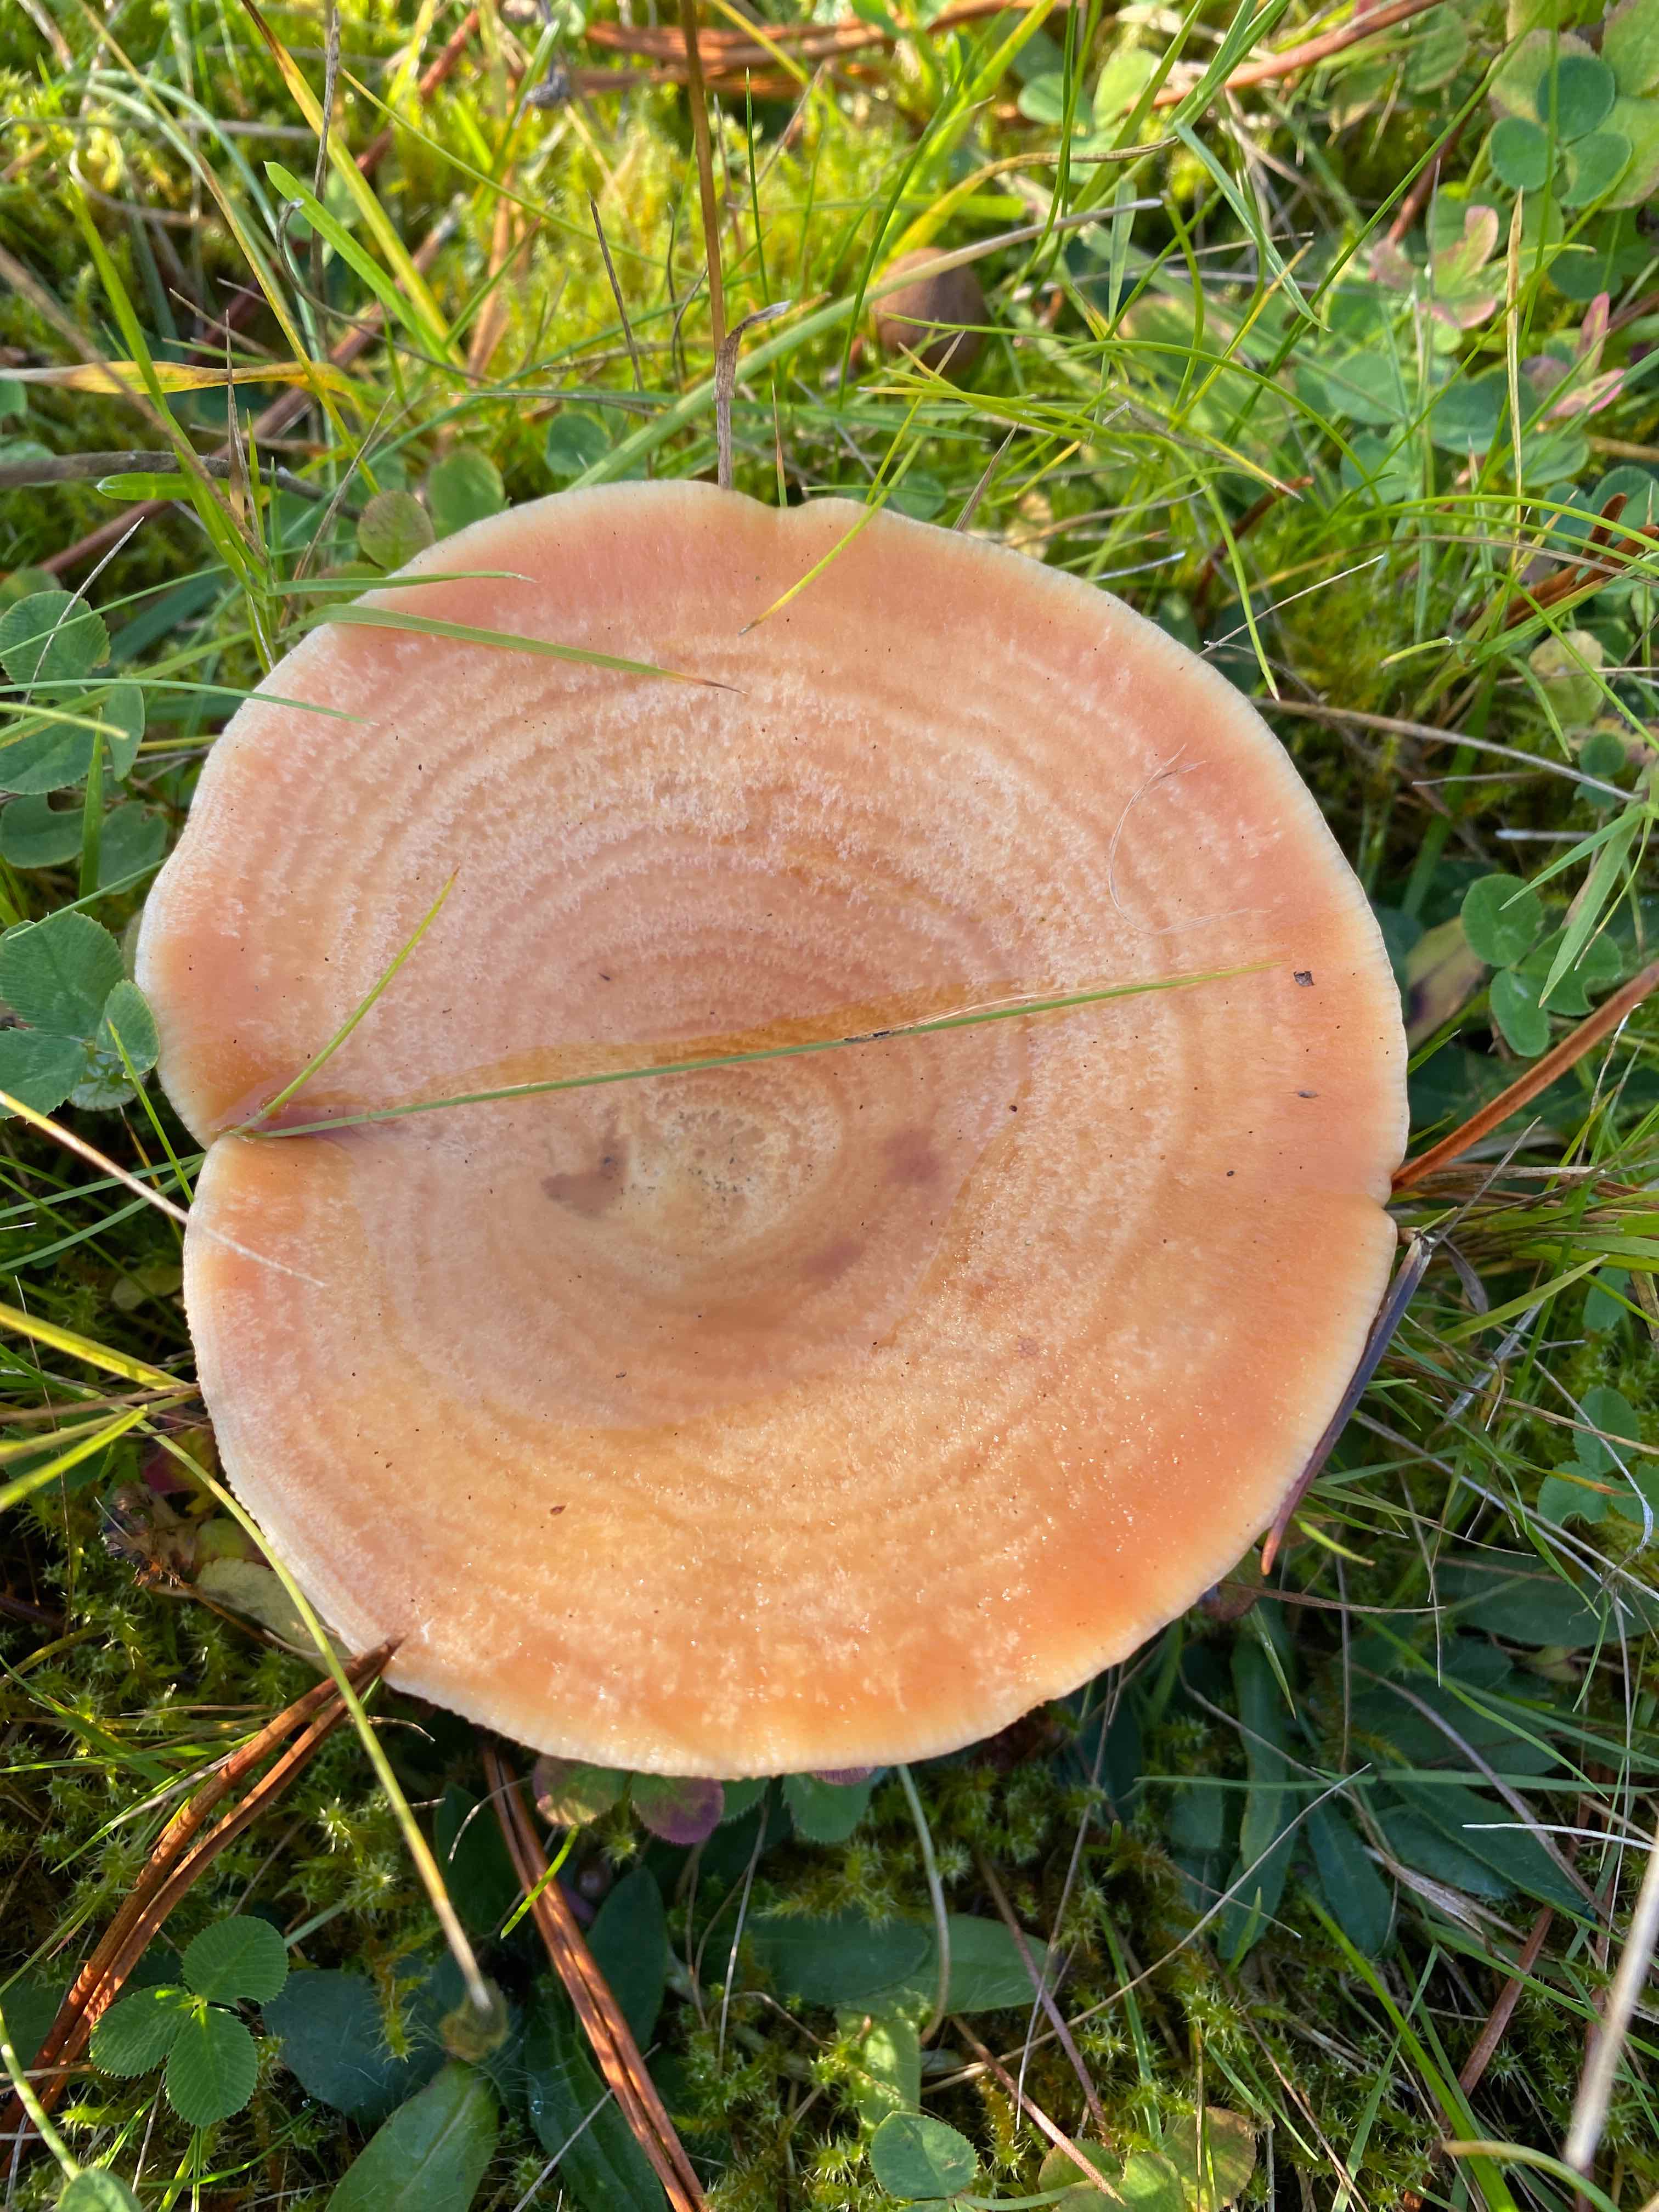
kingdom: Fungi
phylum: Basidiomycota
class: Agaricomycetes
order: Russulales
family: Russulaceae
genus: Lactarius
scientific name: Lactarius deliciosus
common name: velsmagende mælkehat
